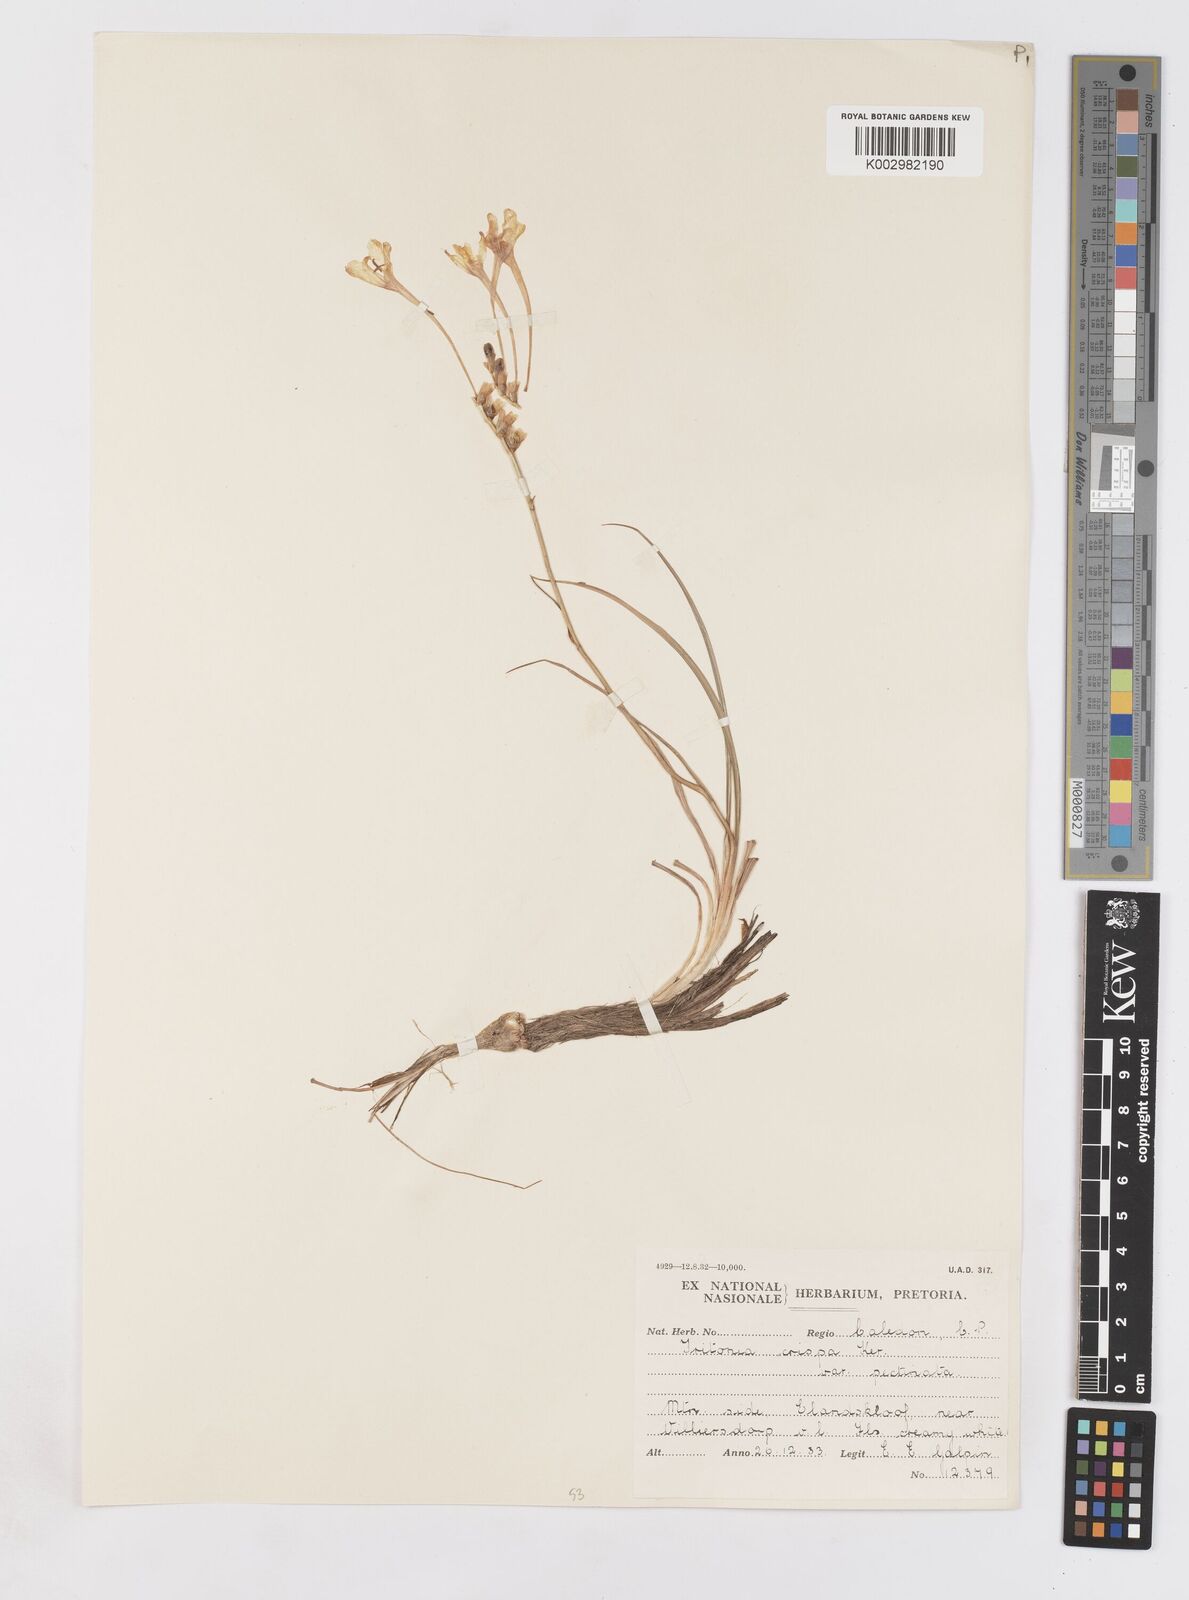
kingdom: Plantae
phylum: Tracheophyta
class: Liliopsida
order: Asparagales
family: Iridaceae
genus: Tritonia
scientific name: Tritonia
